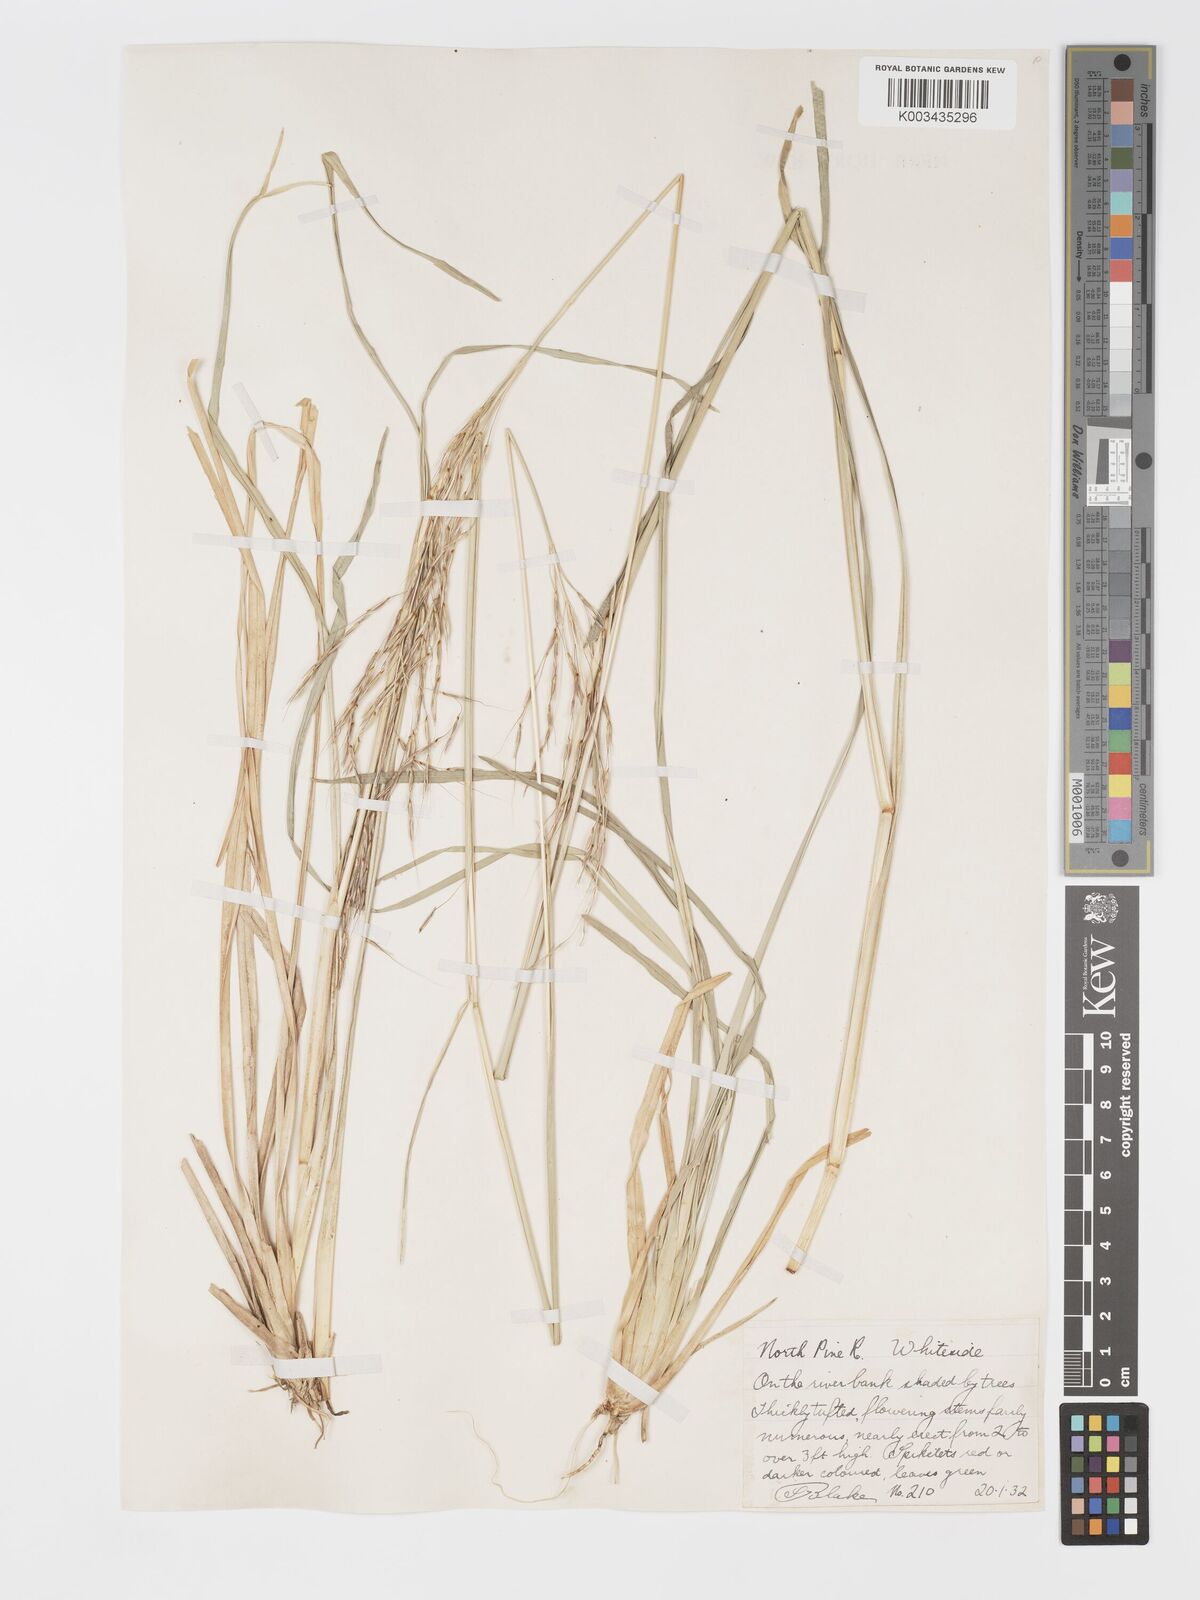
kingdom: Plantae
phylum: Tracheophyta
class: Liliopsida
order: Poales
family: Poaceae
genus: Chrysopogon
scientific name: Chrysopogon filipes
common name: Australian vetiver
